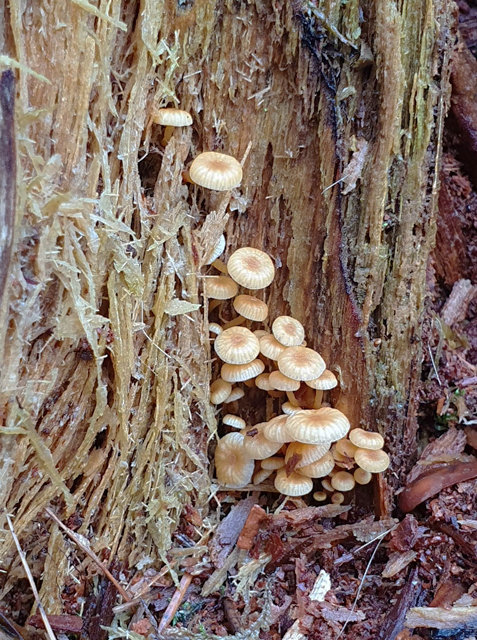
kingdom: Fungi
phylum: Basidiomycota
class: Agaricomycetes
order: Agaricales
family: Mycenaceae
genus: Xeromphalina
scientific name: Xeromphalina campanella
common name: klokke-tørhat
